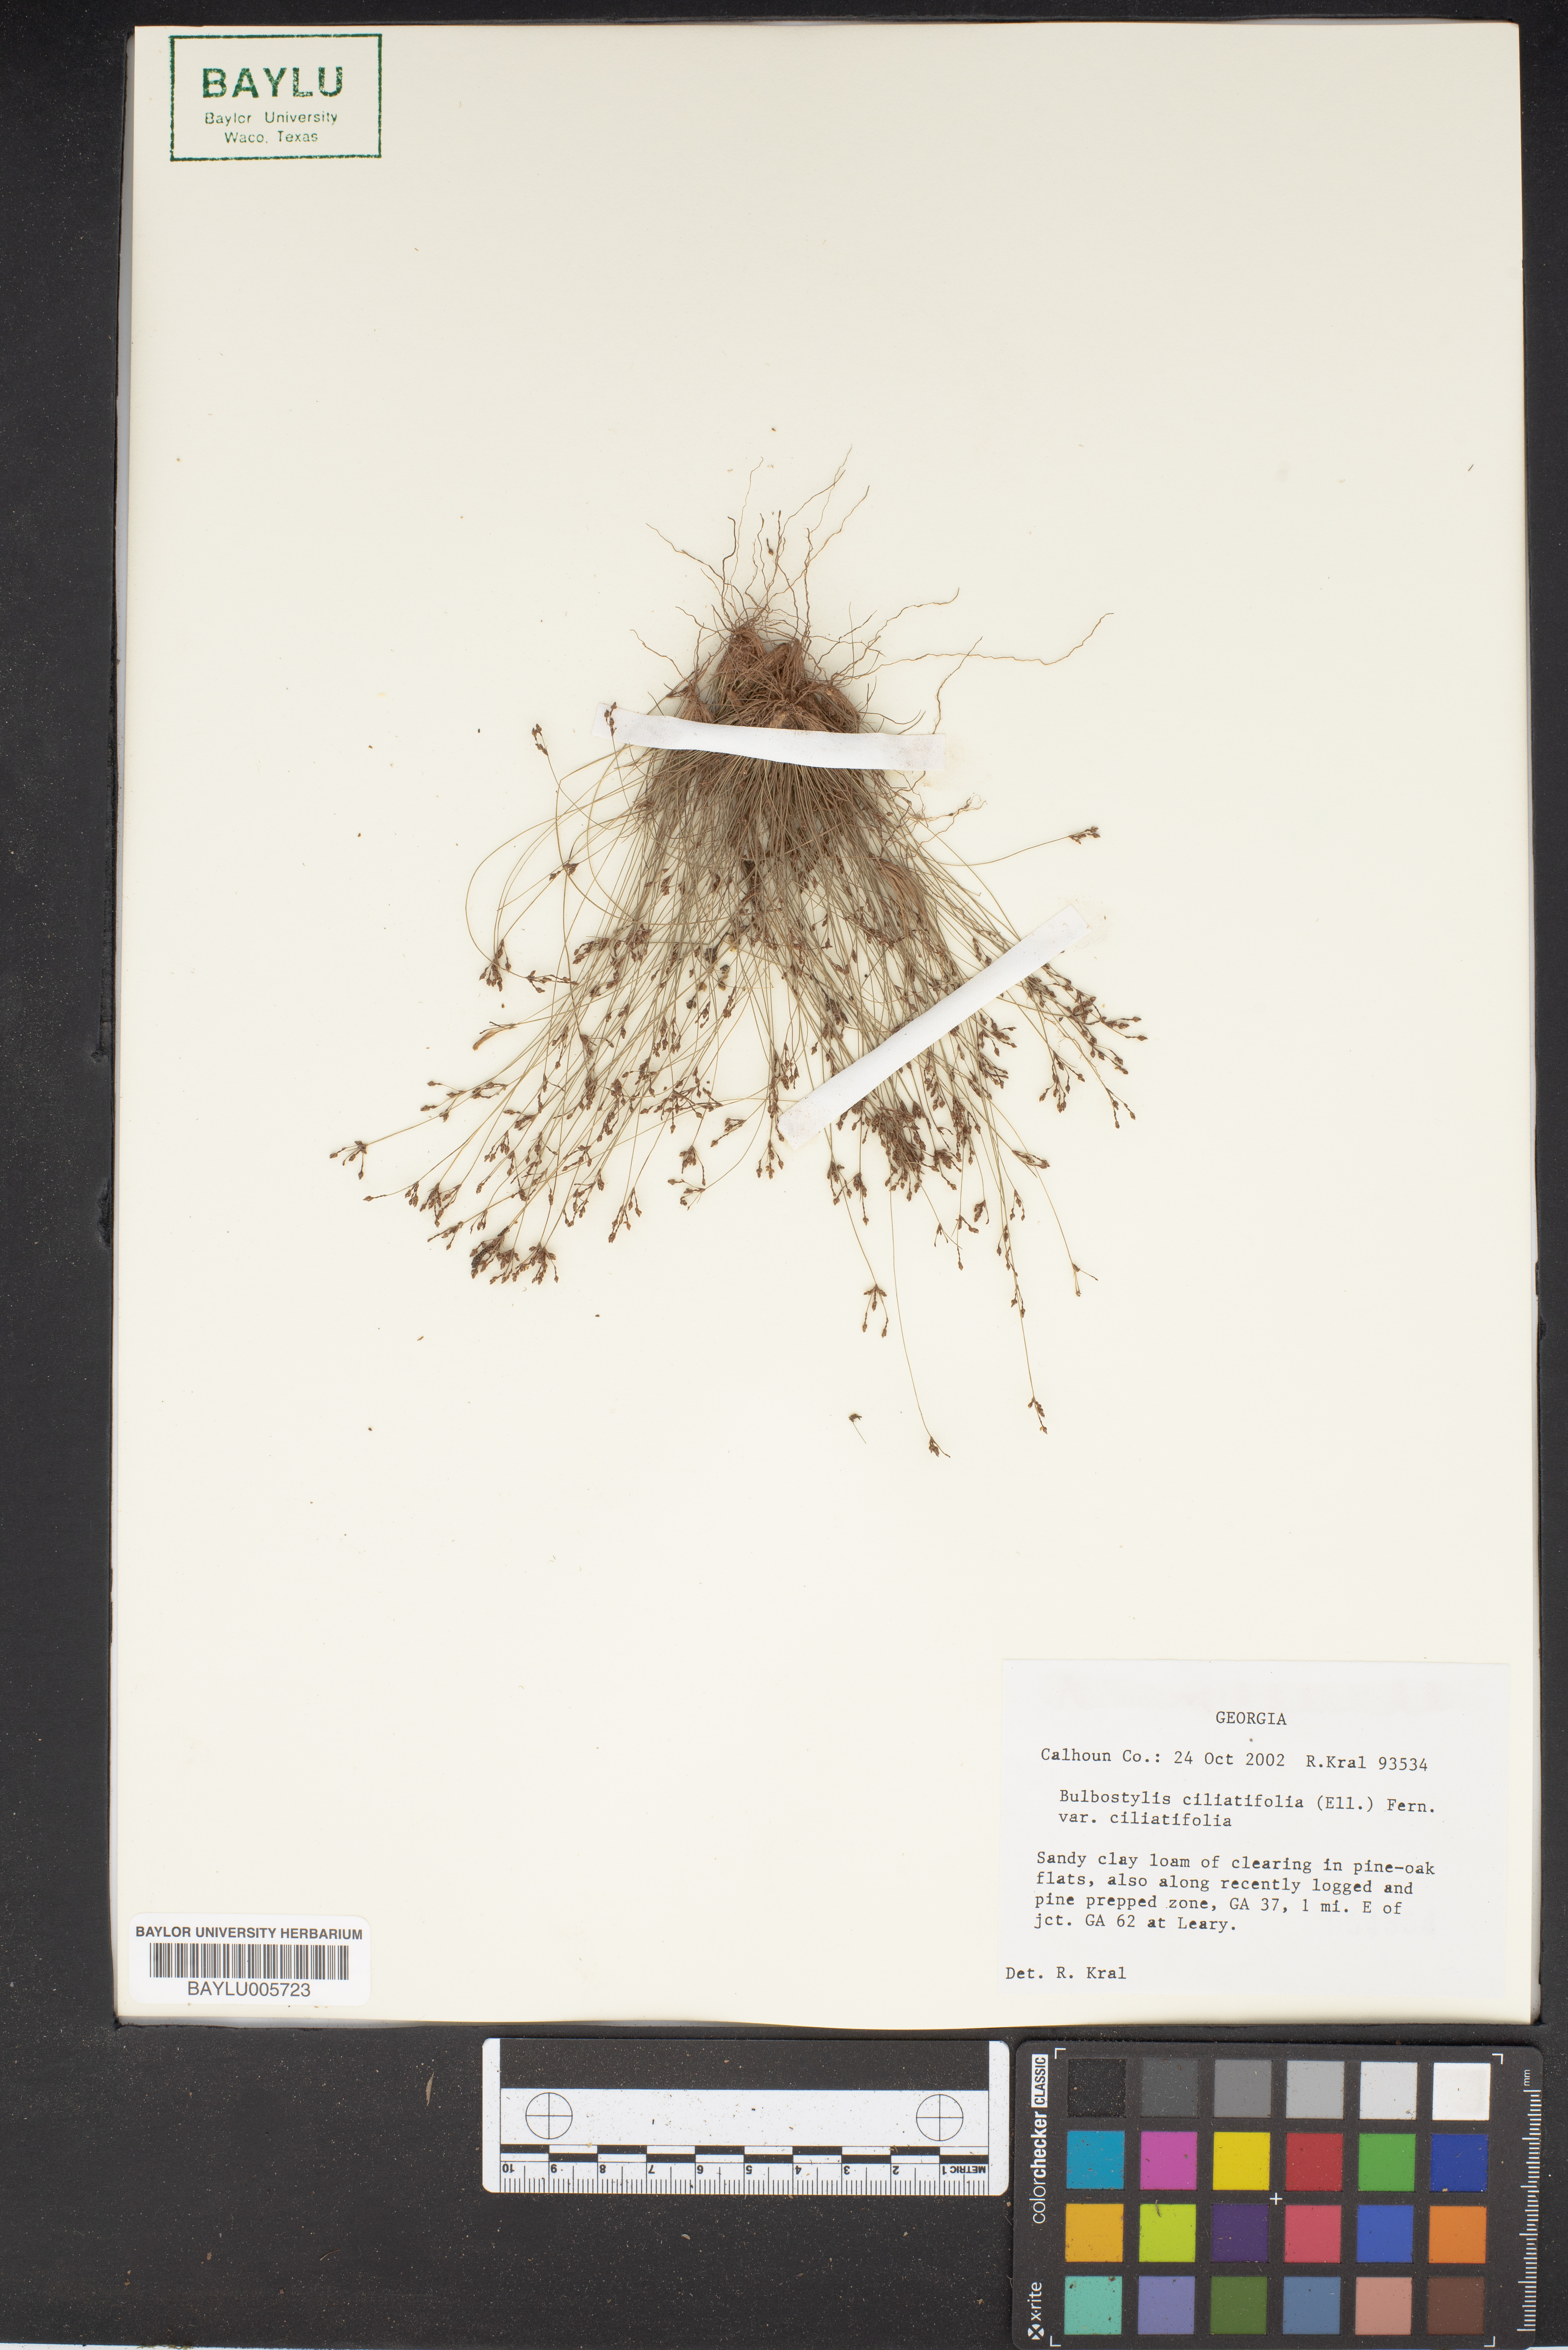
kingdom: Plantae
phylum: Tracheophyta
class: Liliopsida
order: Poales
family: Cyperaceae
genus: Bulbostylis
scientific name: Bulbostylis ciliatifolia
